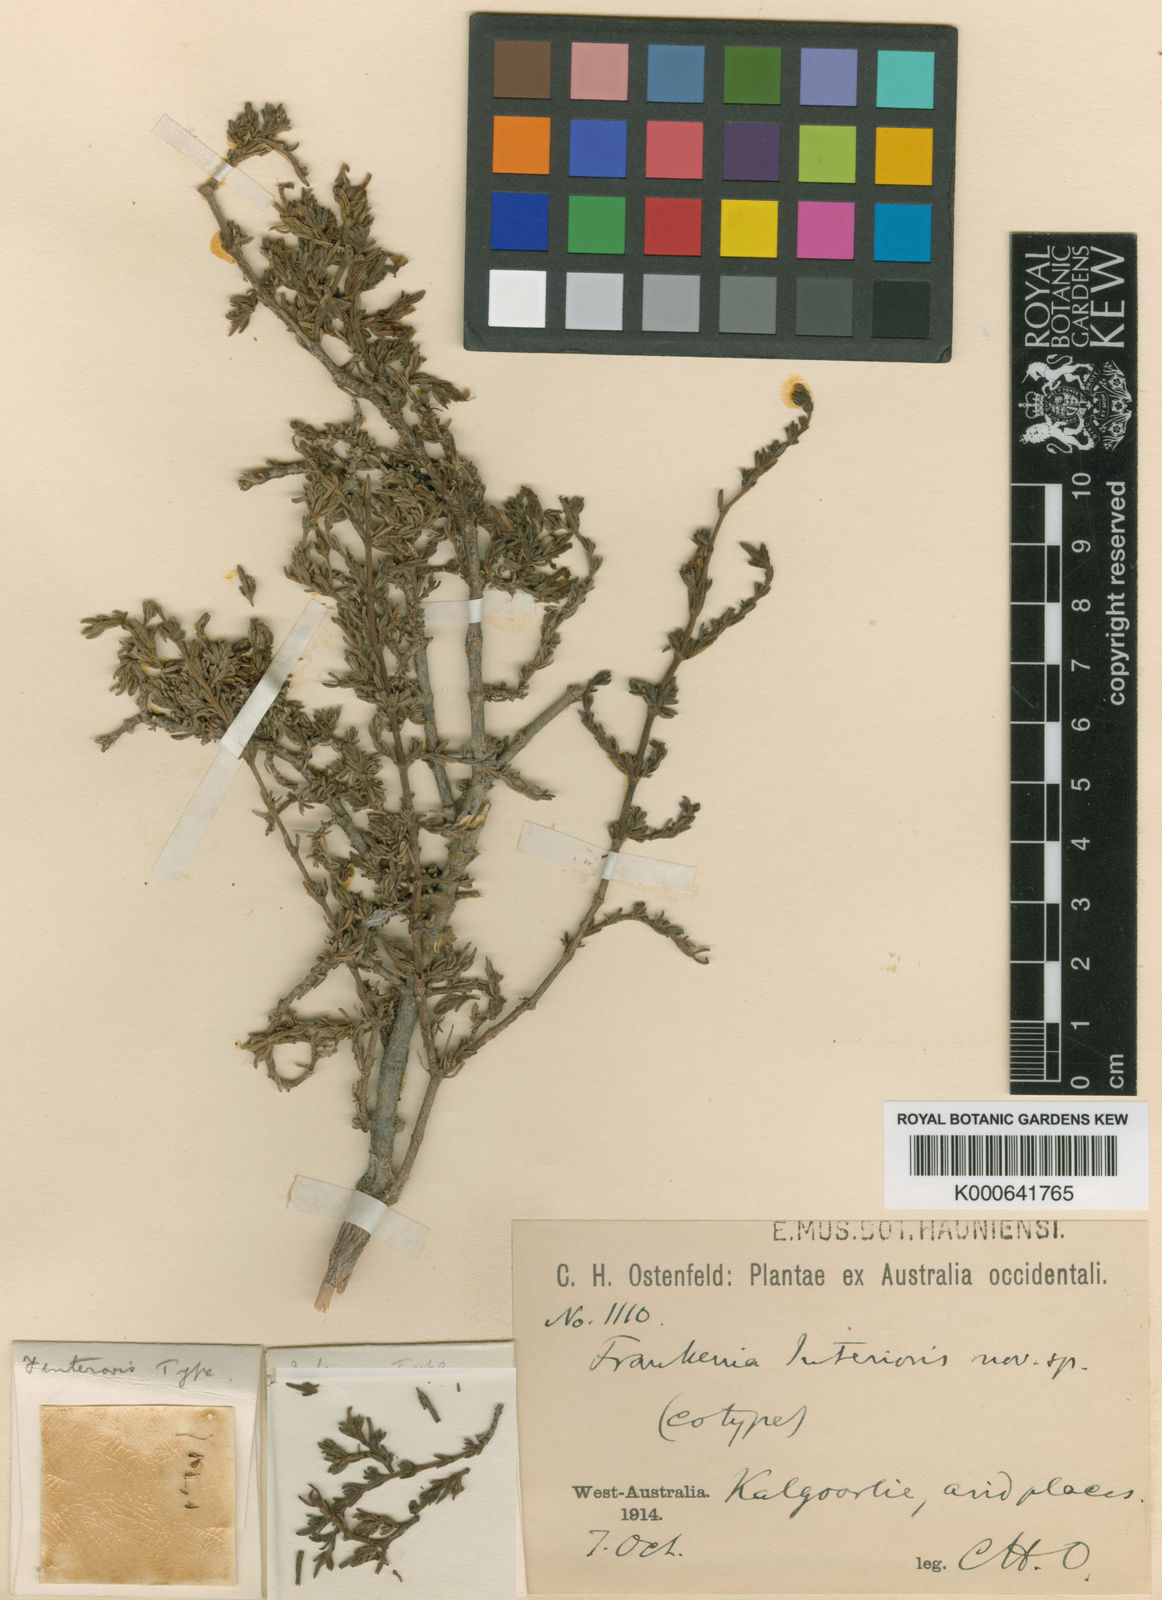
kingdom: Plantae
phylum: Tracheophyta
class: Magnoliopsida
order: Caryophyllales
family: Frankeniaceae
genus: Frankenia
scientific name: Frankenia interioris
